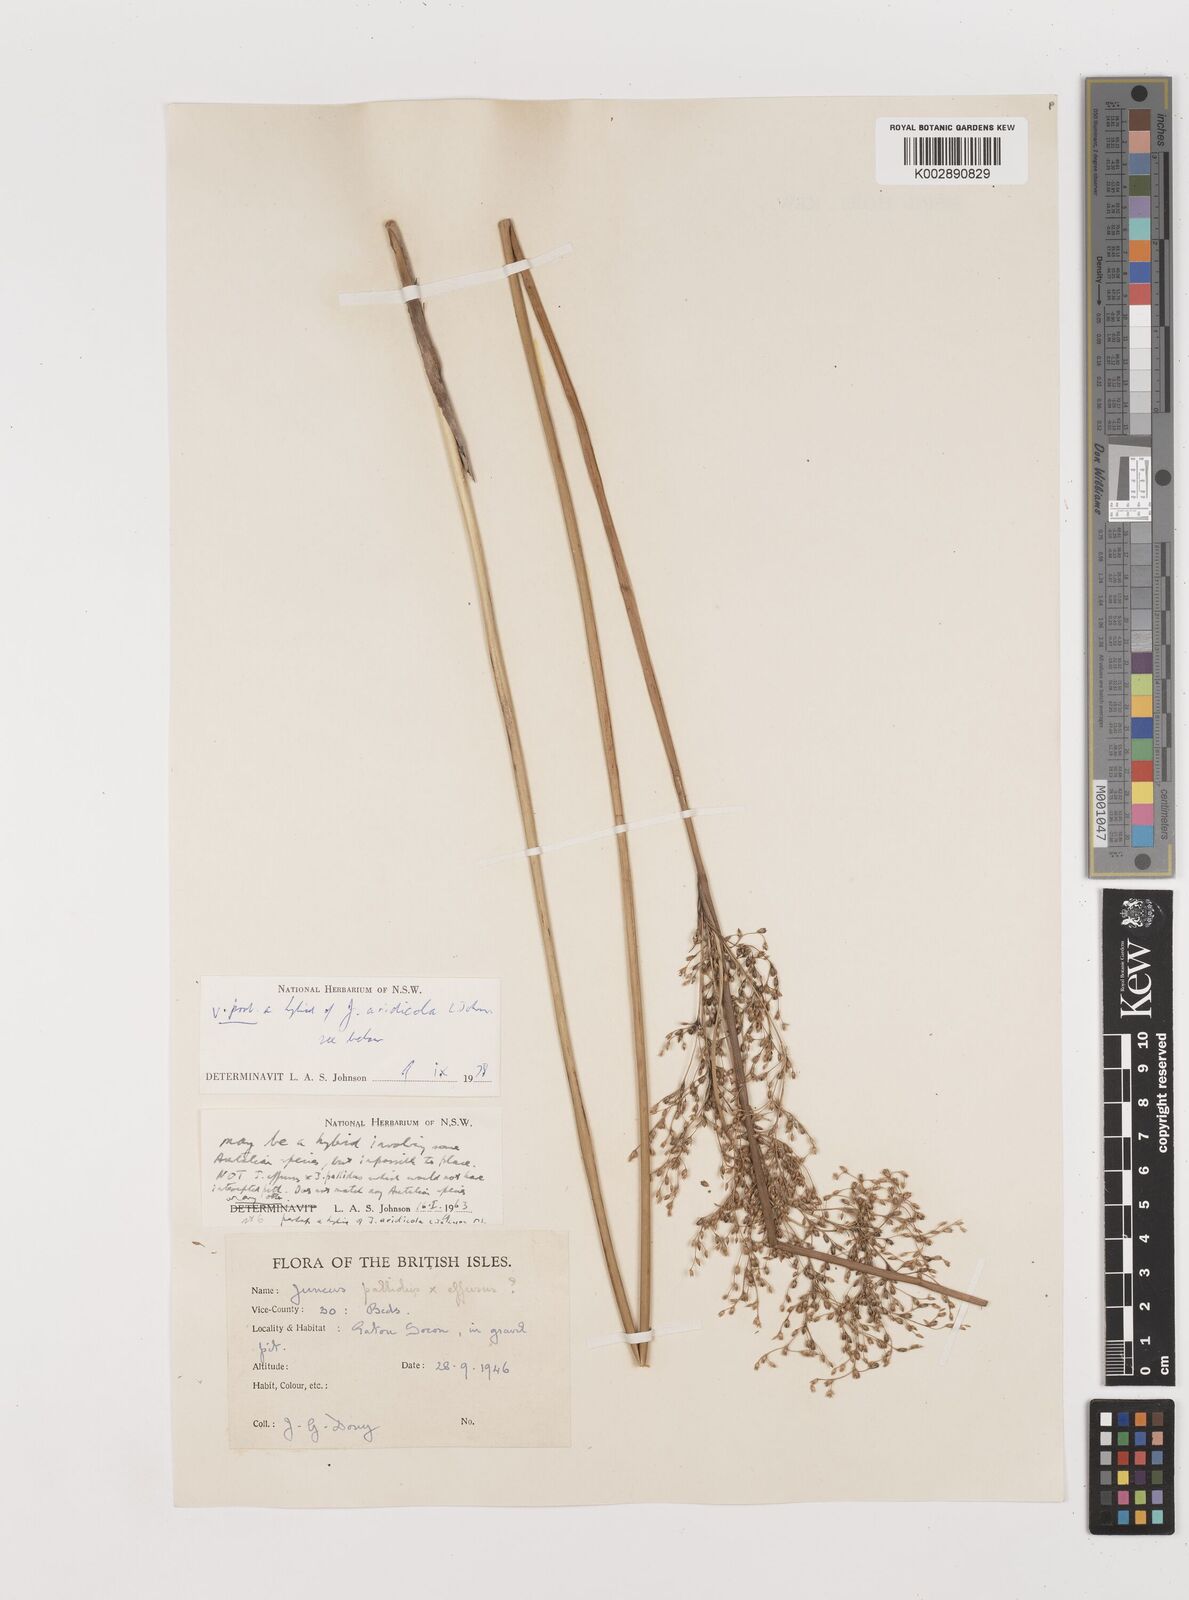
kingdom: Plantae
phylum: Tracheophyta
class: Liliopsida
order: Poales
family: Juncaceae
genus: Juncus
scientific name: Juncus aridicola
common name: Tussock rush
